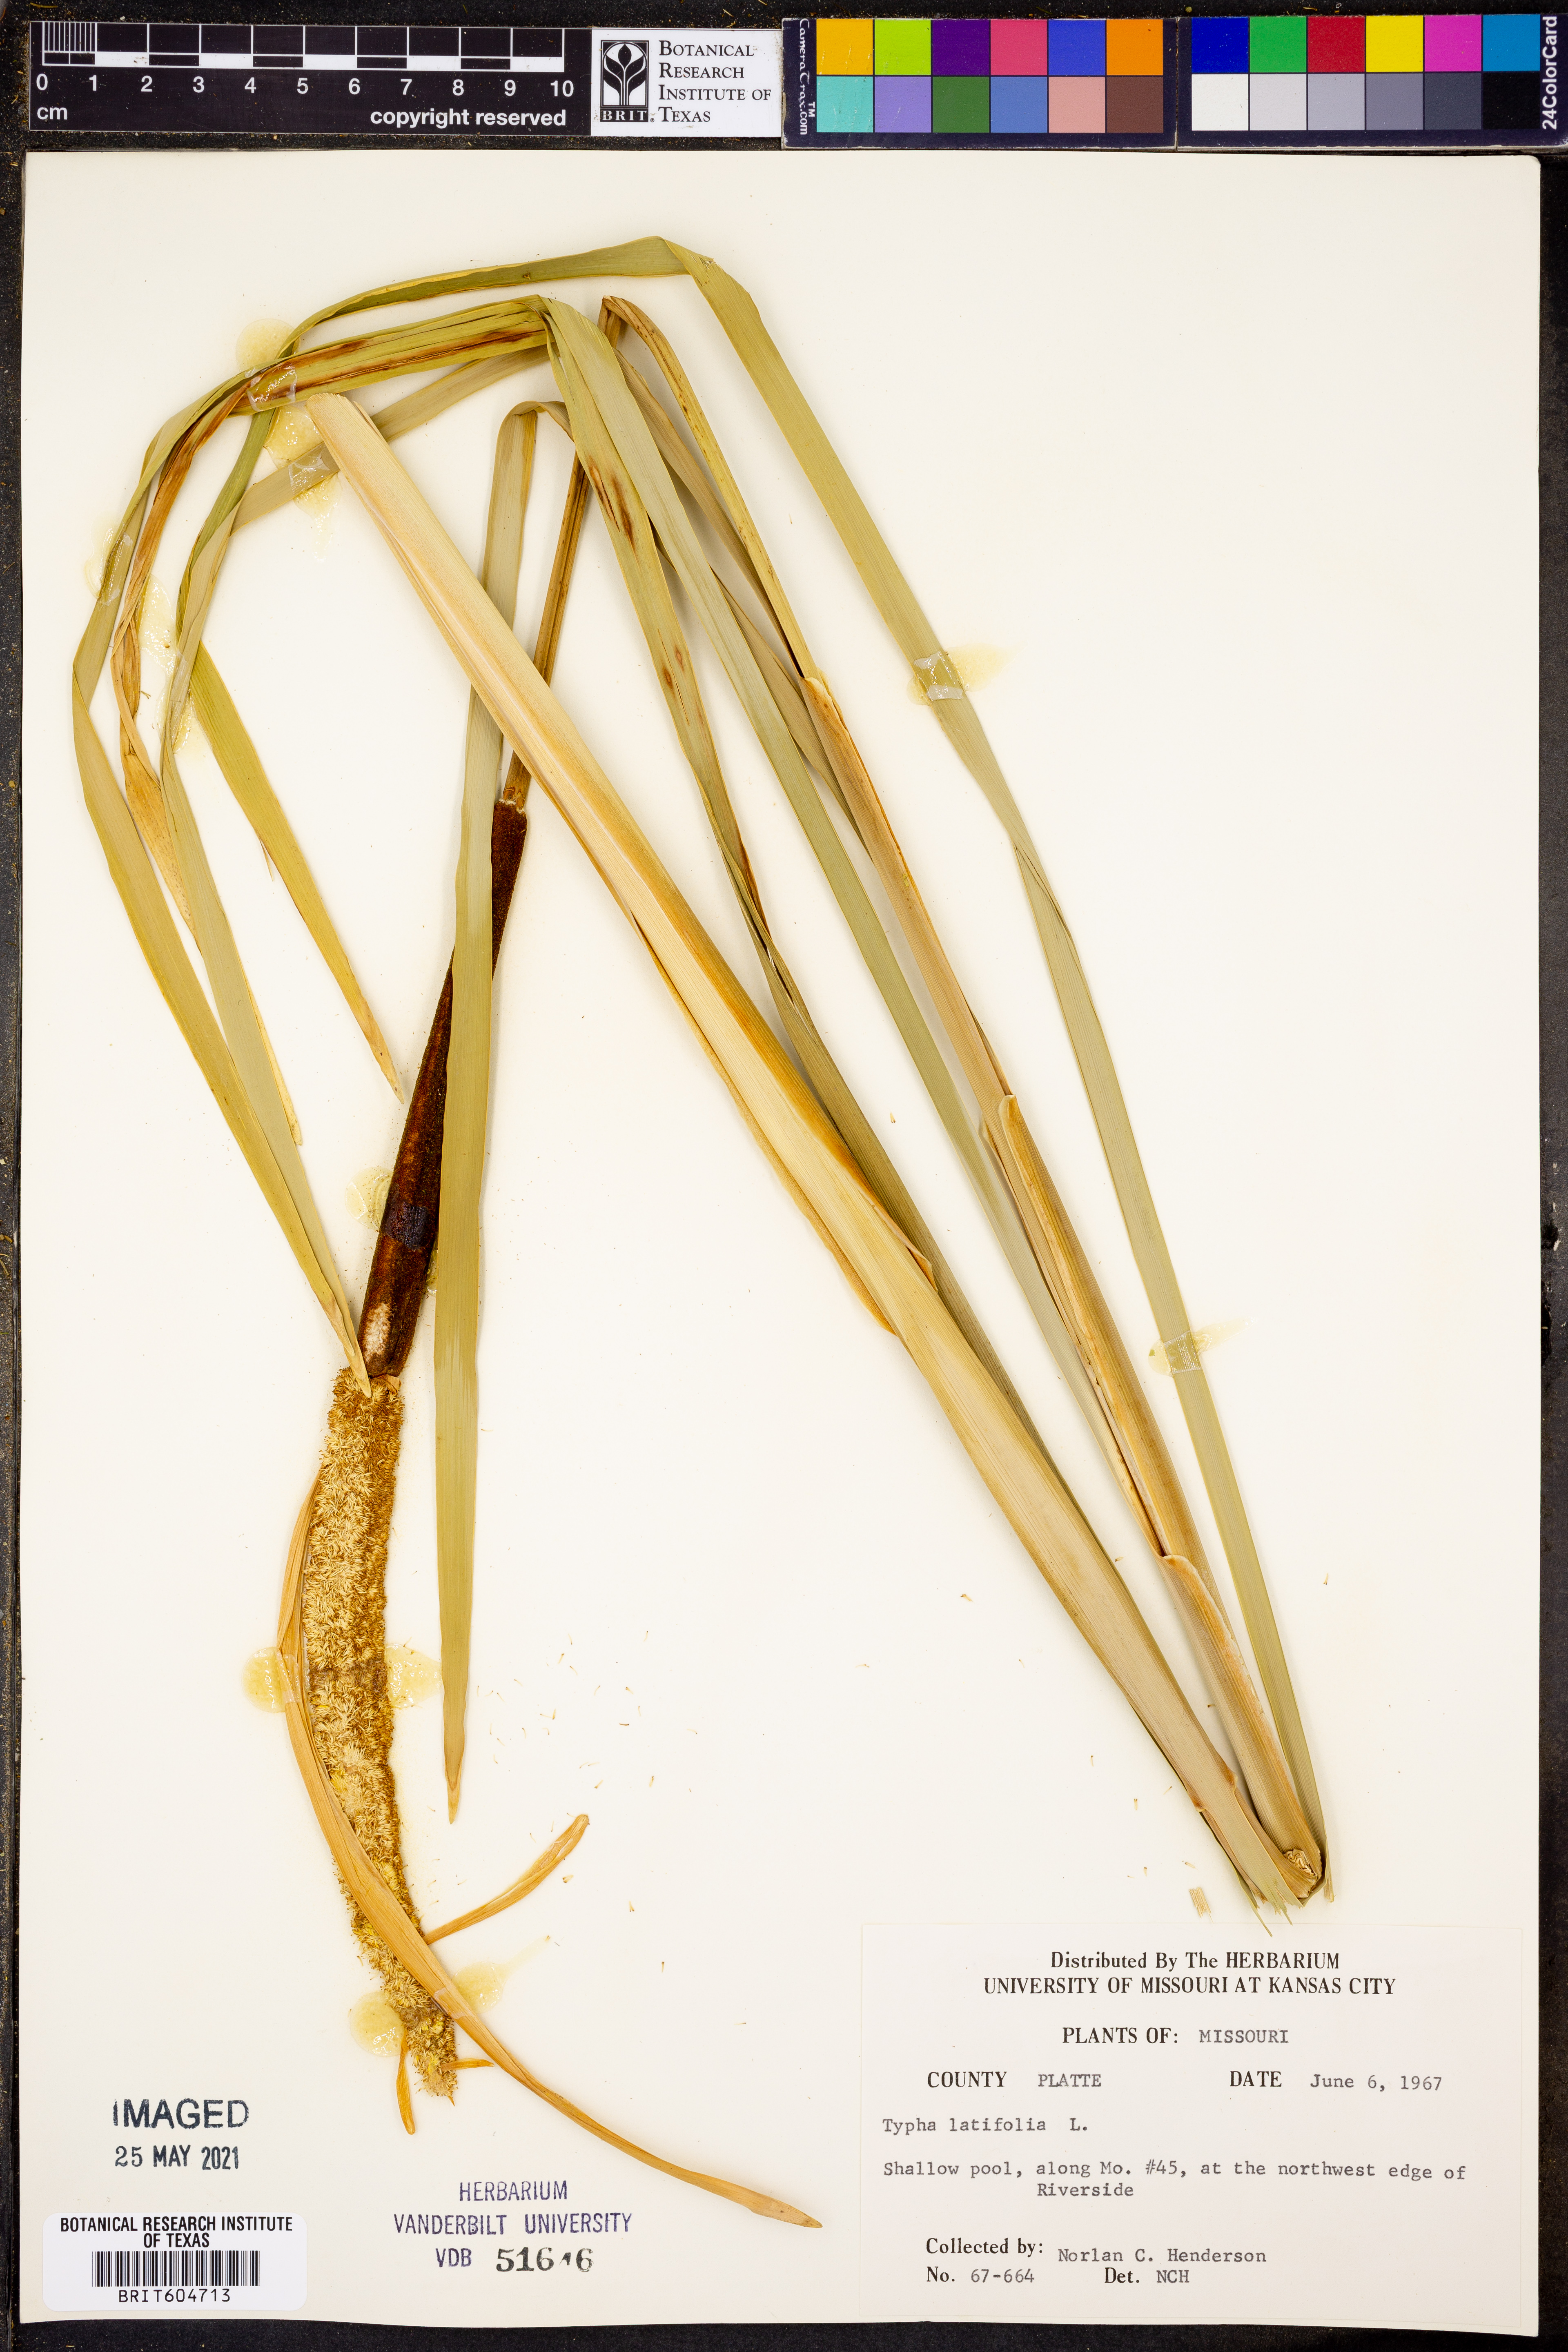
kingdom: Plantae
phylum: Tracheophyta
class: Liliopsida
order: Poales
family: Typhaceae
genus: Typha
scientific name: Typha latifolia
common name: Broadleaf cattail
